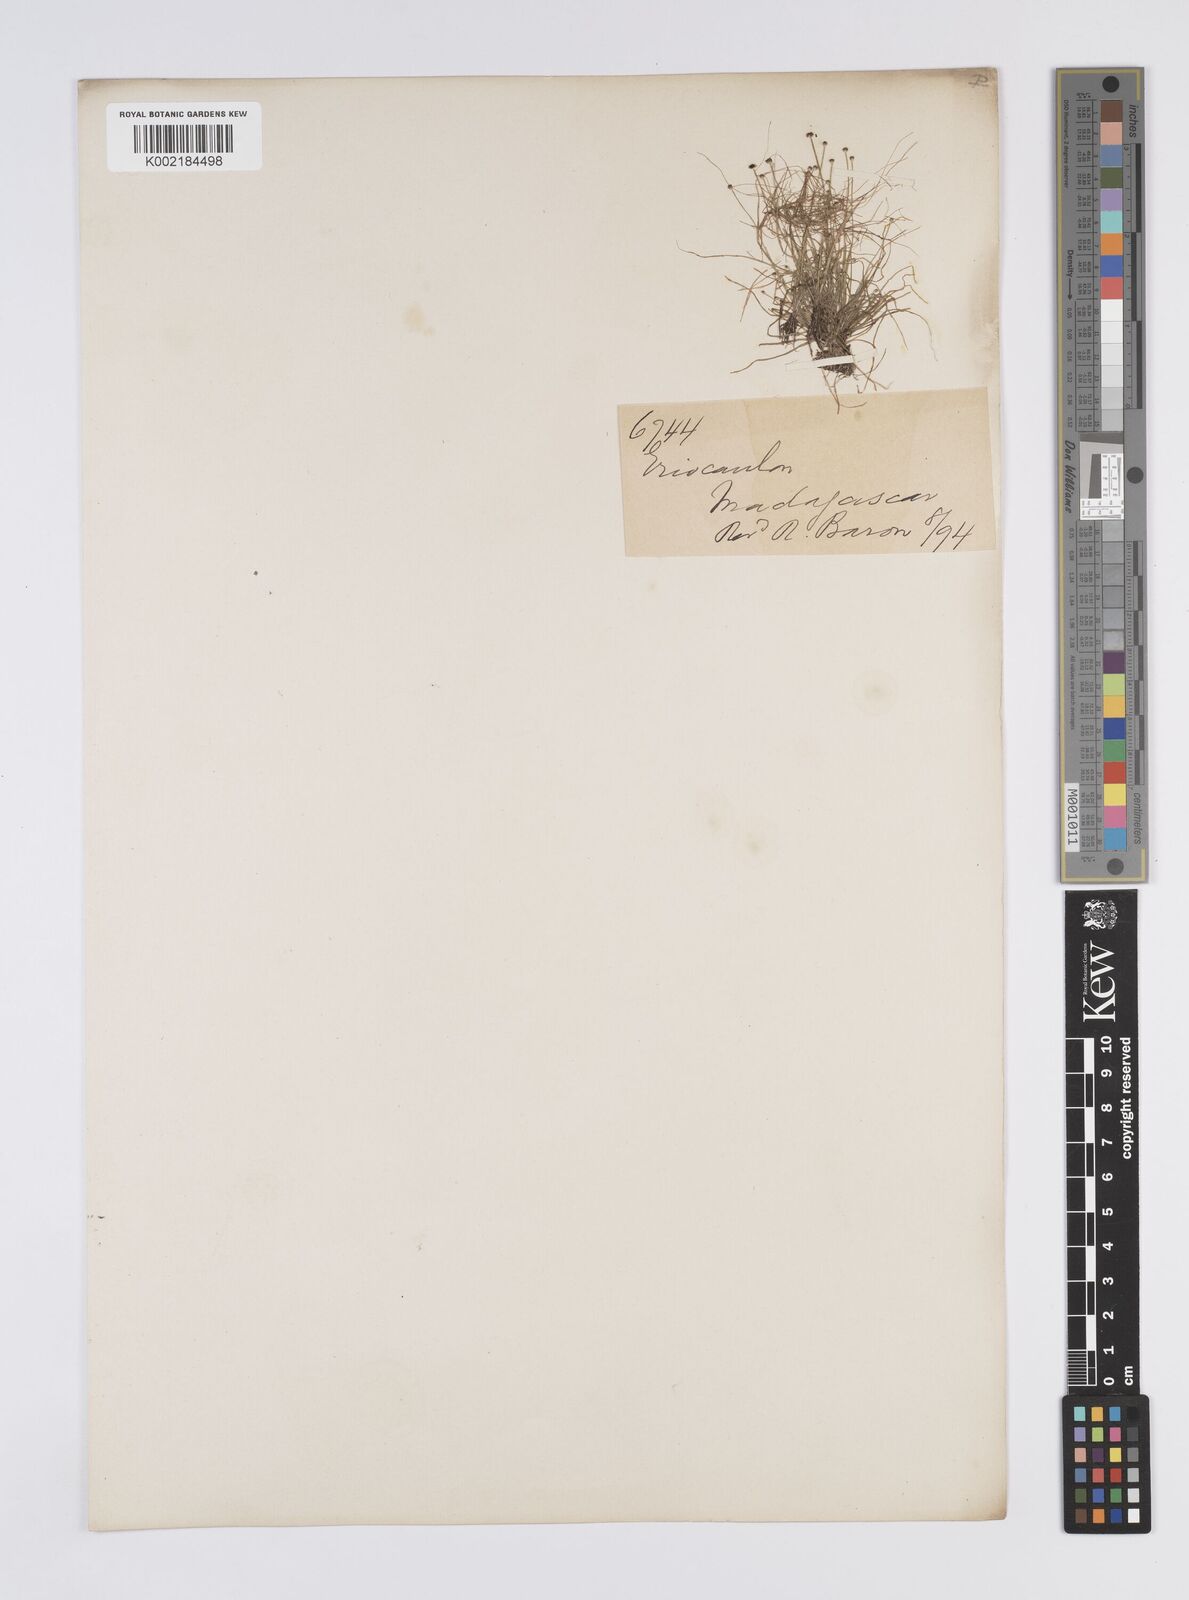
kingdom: Plantae
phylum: Tracheophyta
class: Liliopsida
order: Poales
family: Eriocaulaceae
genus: Eriocaulon
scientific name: Eriocaulon
